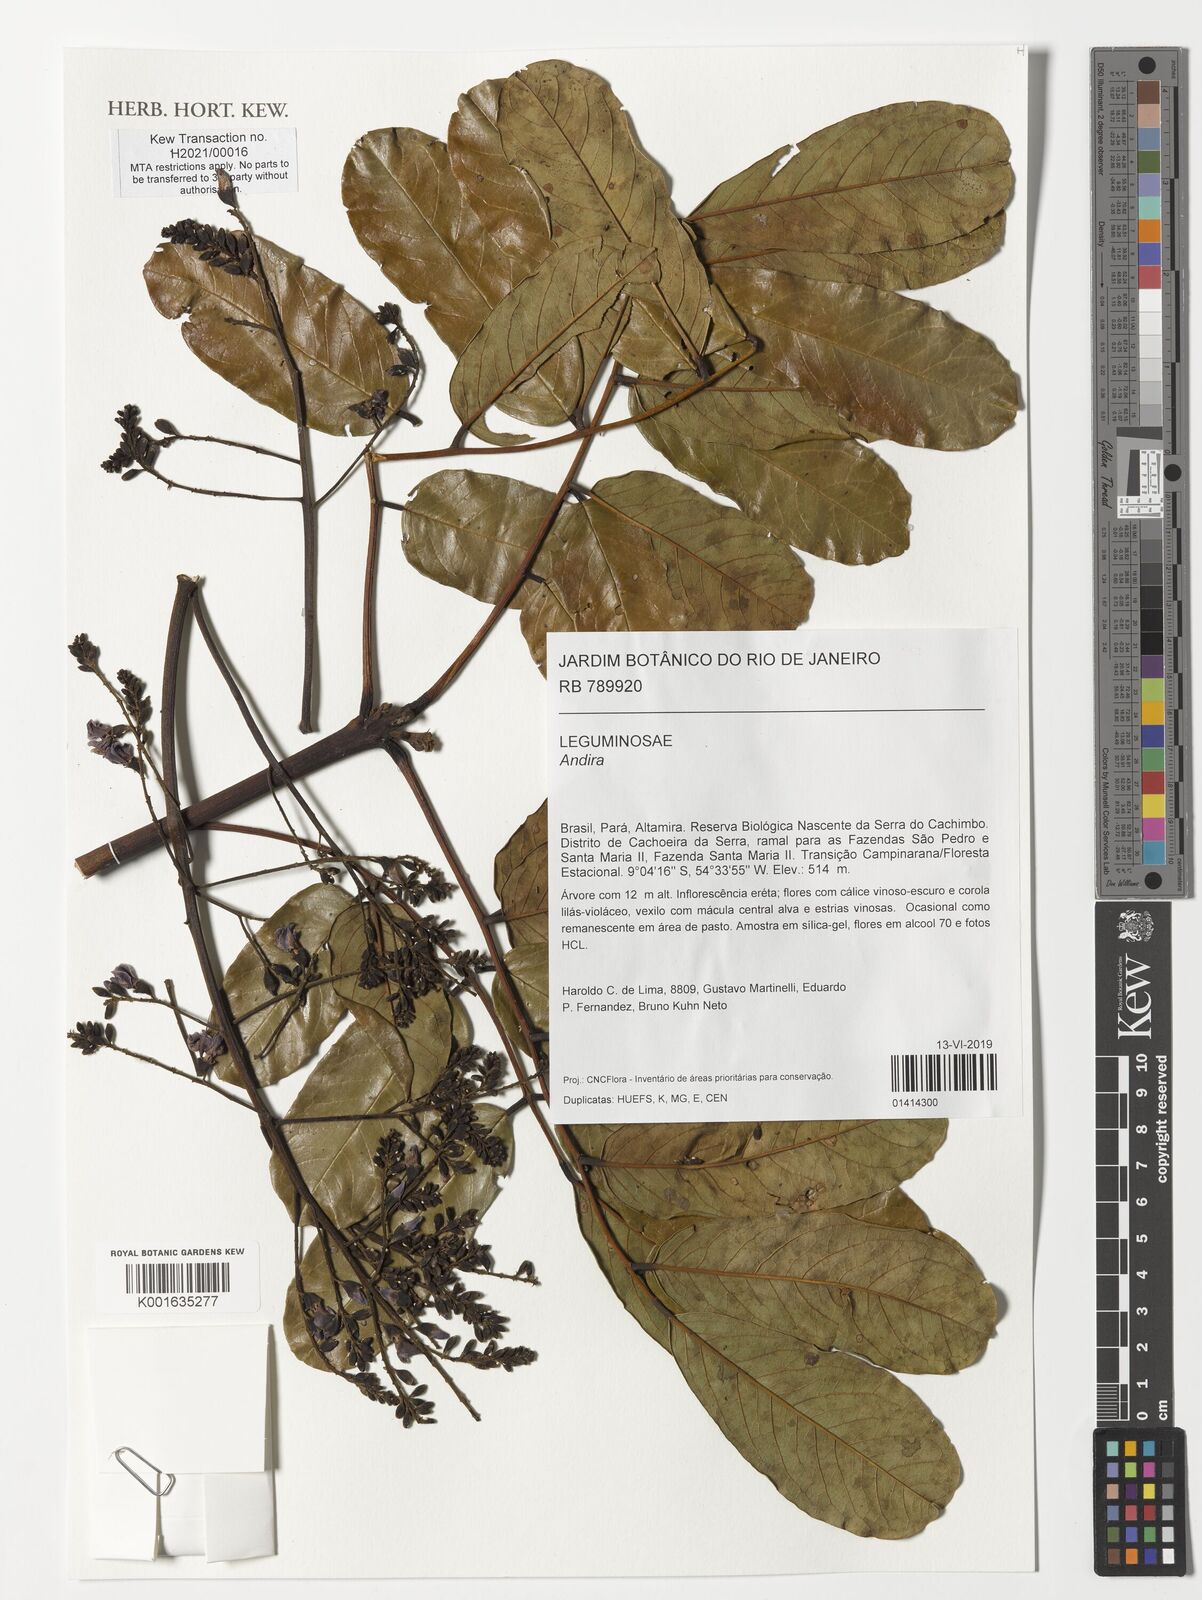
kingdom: Plantae
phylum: Tracheophyta
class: Magnoliopsida
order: Fabales
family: Fabaceae
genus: Andira
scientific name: Andira
